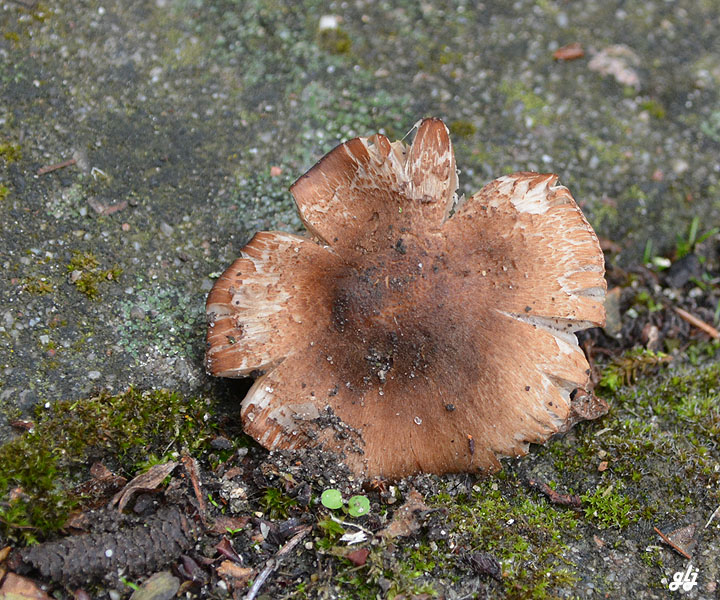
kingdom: Fungi
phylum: Basidiomycota
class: Agaricomycetes
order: Agaricales
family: Inocybaceae
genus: Pseudosperma
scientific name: Pseudosperma
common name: trævlhat
